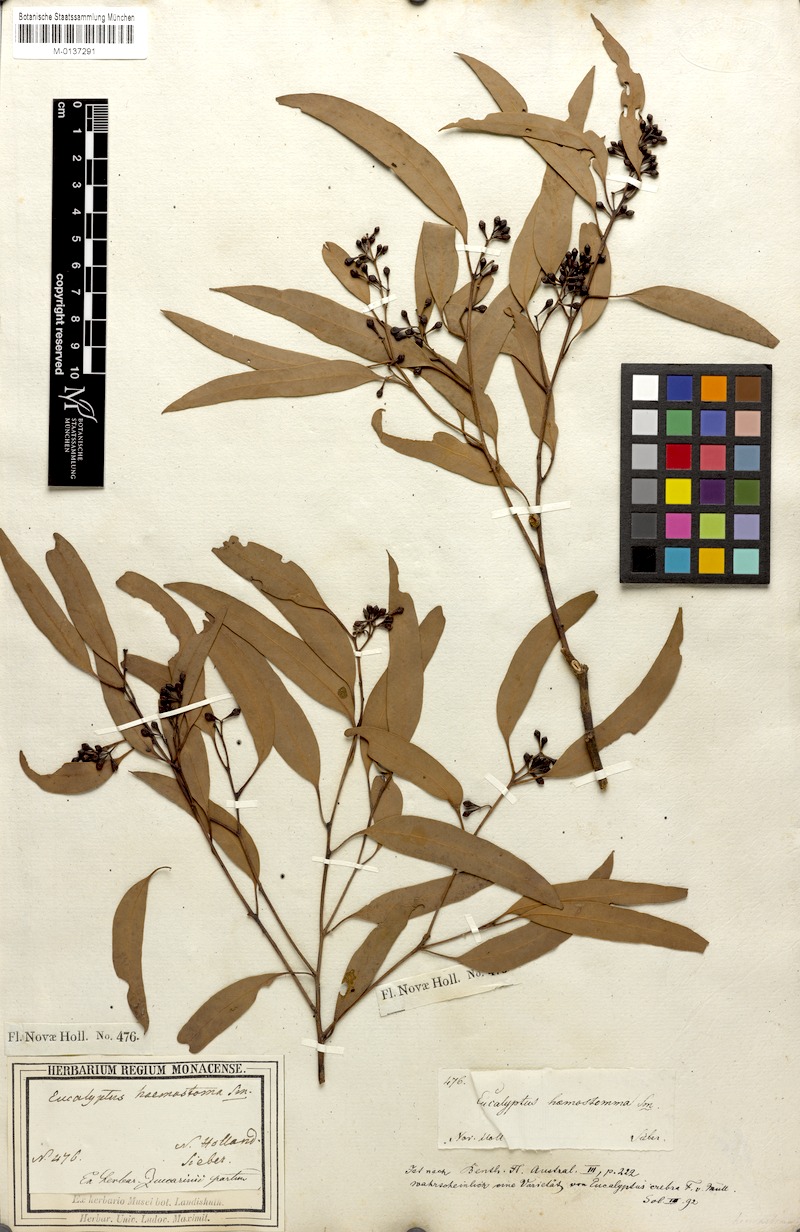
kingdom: Plantae
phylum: Tracheophyta
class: Magnoliopsida
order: Myrtales
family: Myrtaceae
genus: Eucalyptus
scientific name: Eucalyptus haemastoma
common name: Scribbly-gum
